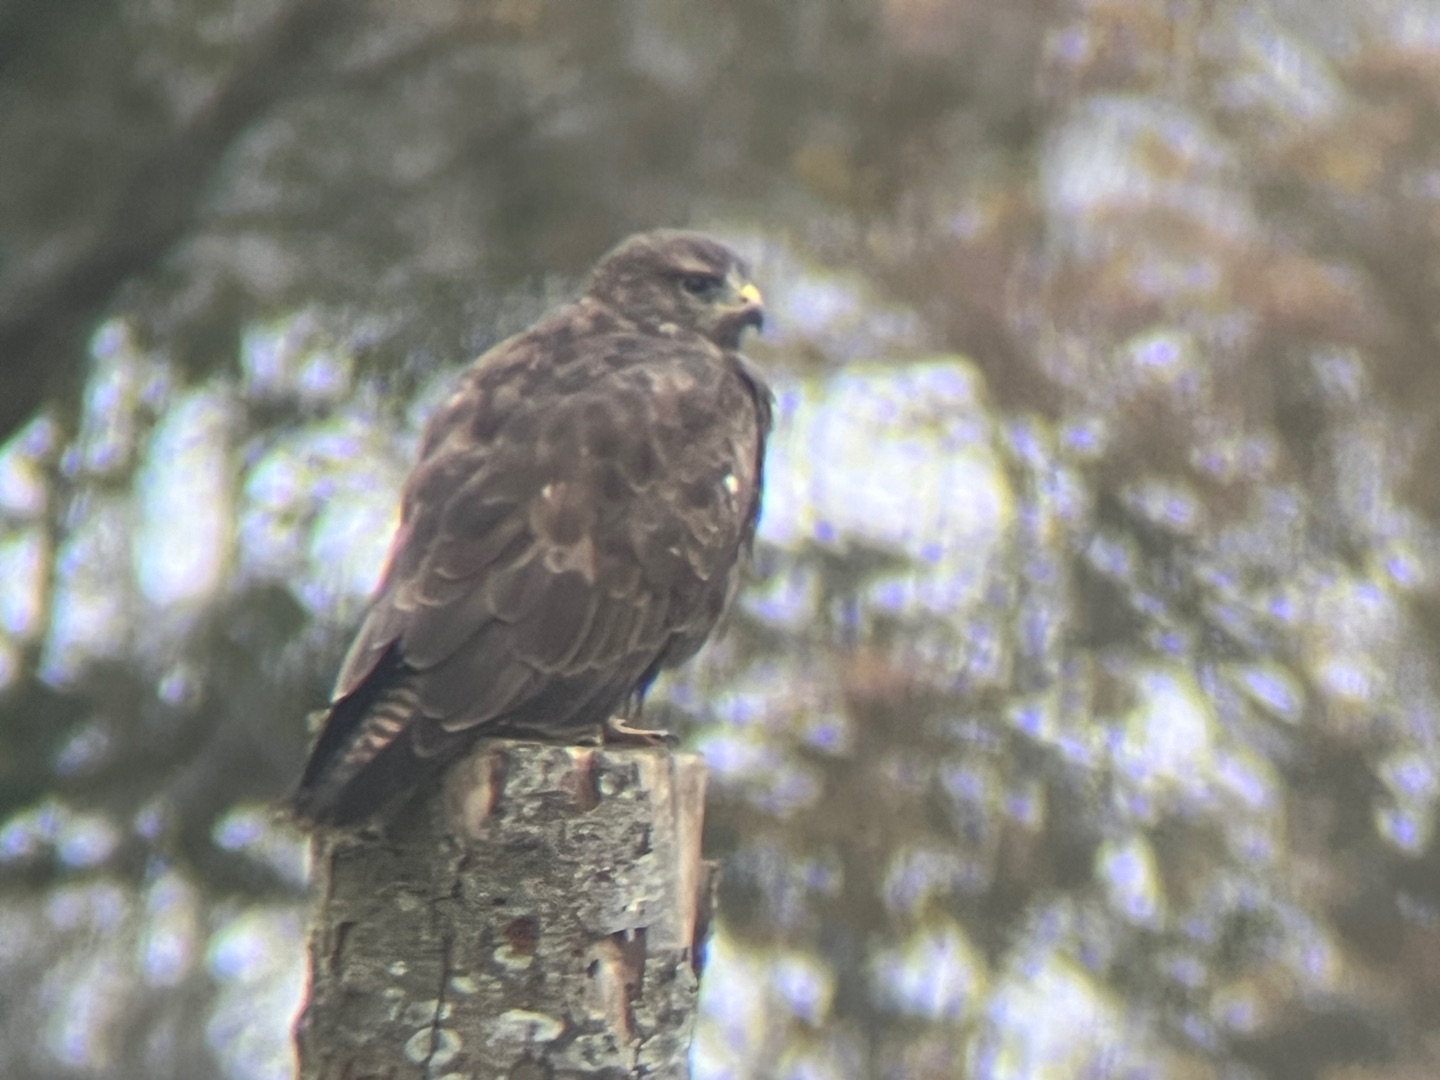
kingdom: Animalia
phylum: Chordata
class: Aves
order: Accipitriformes
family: Accipitridae
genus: Buteo
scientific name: Buteo buteo
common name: Musvåge
